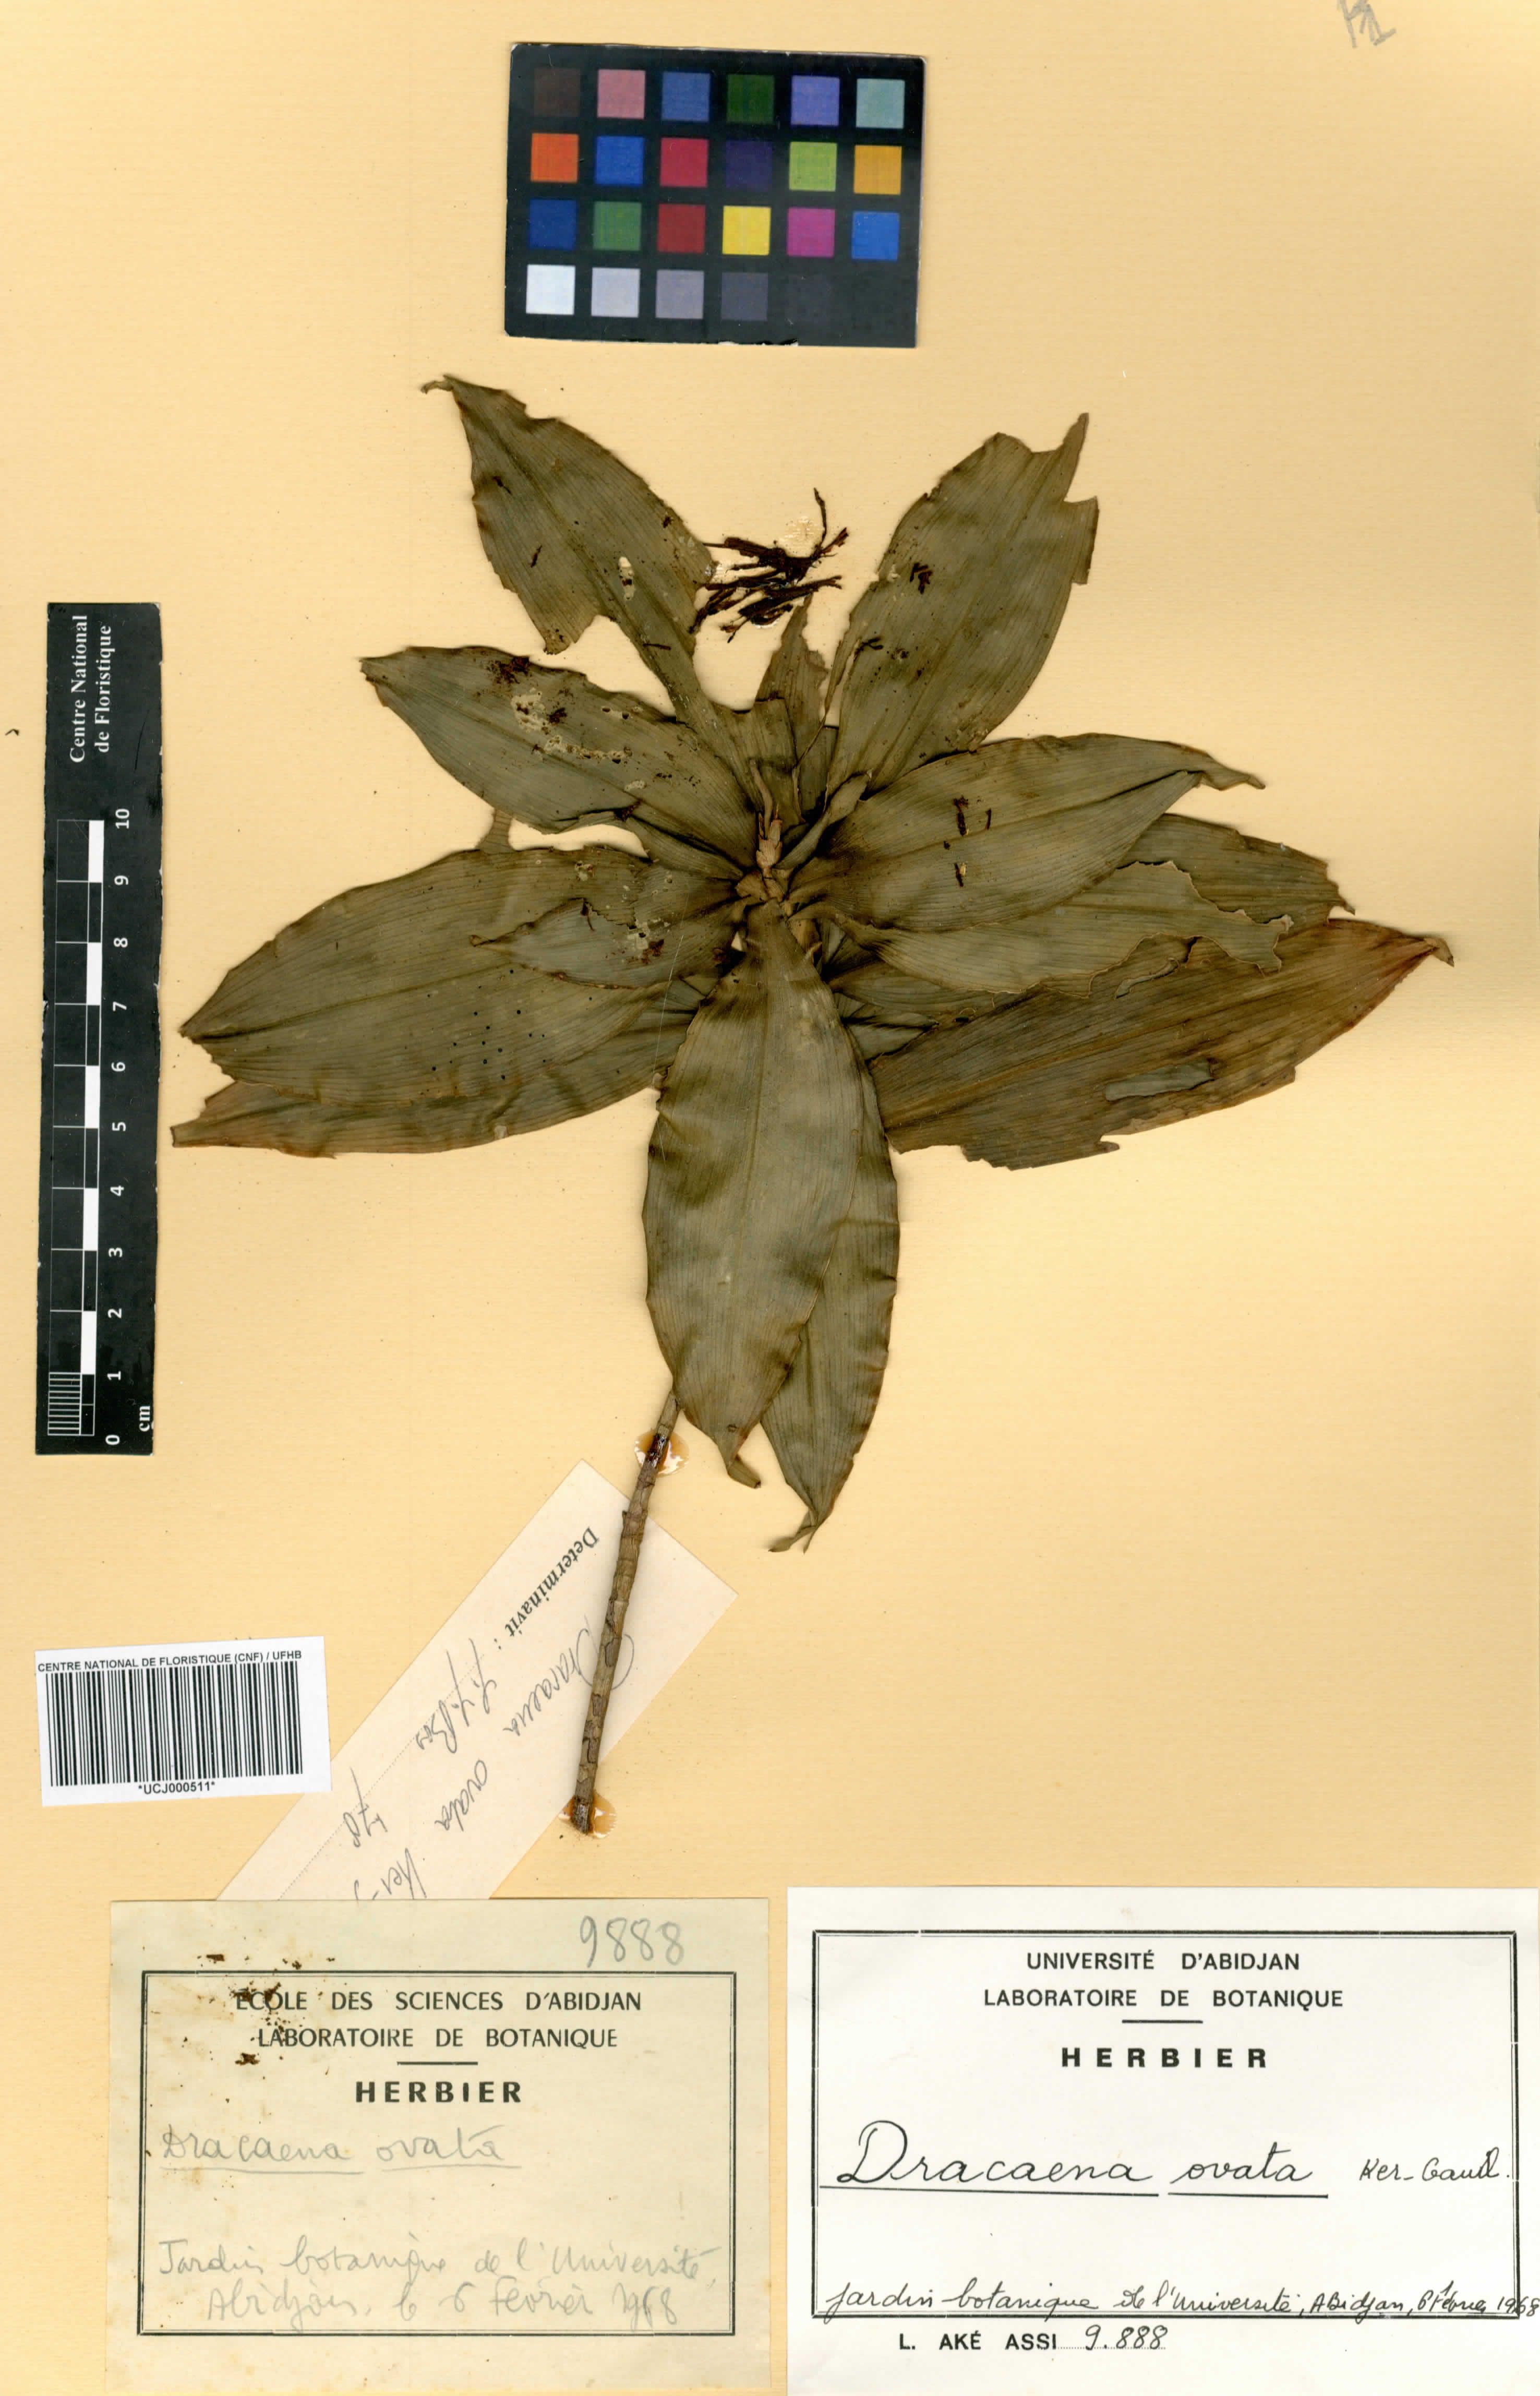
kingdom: Plantae
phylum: Tracheophyta
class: Liliopsida
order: Asparagales
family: Asparagaceae
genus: Dracaena
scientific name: Dracaena ovata
